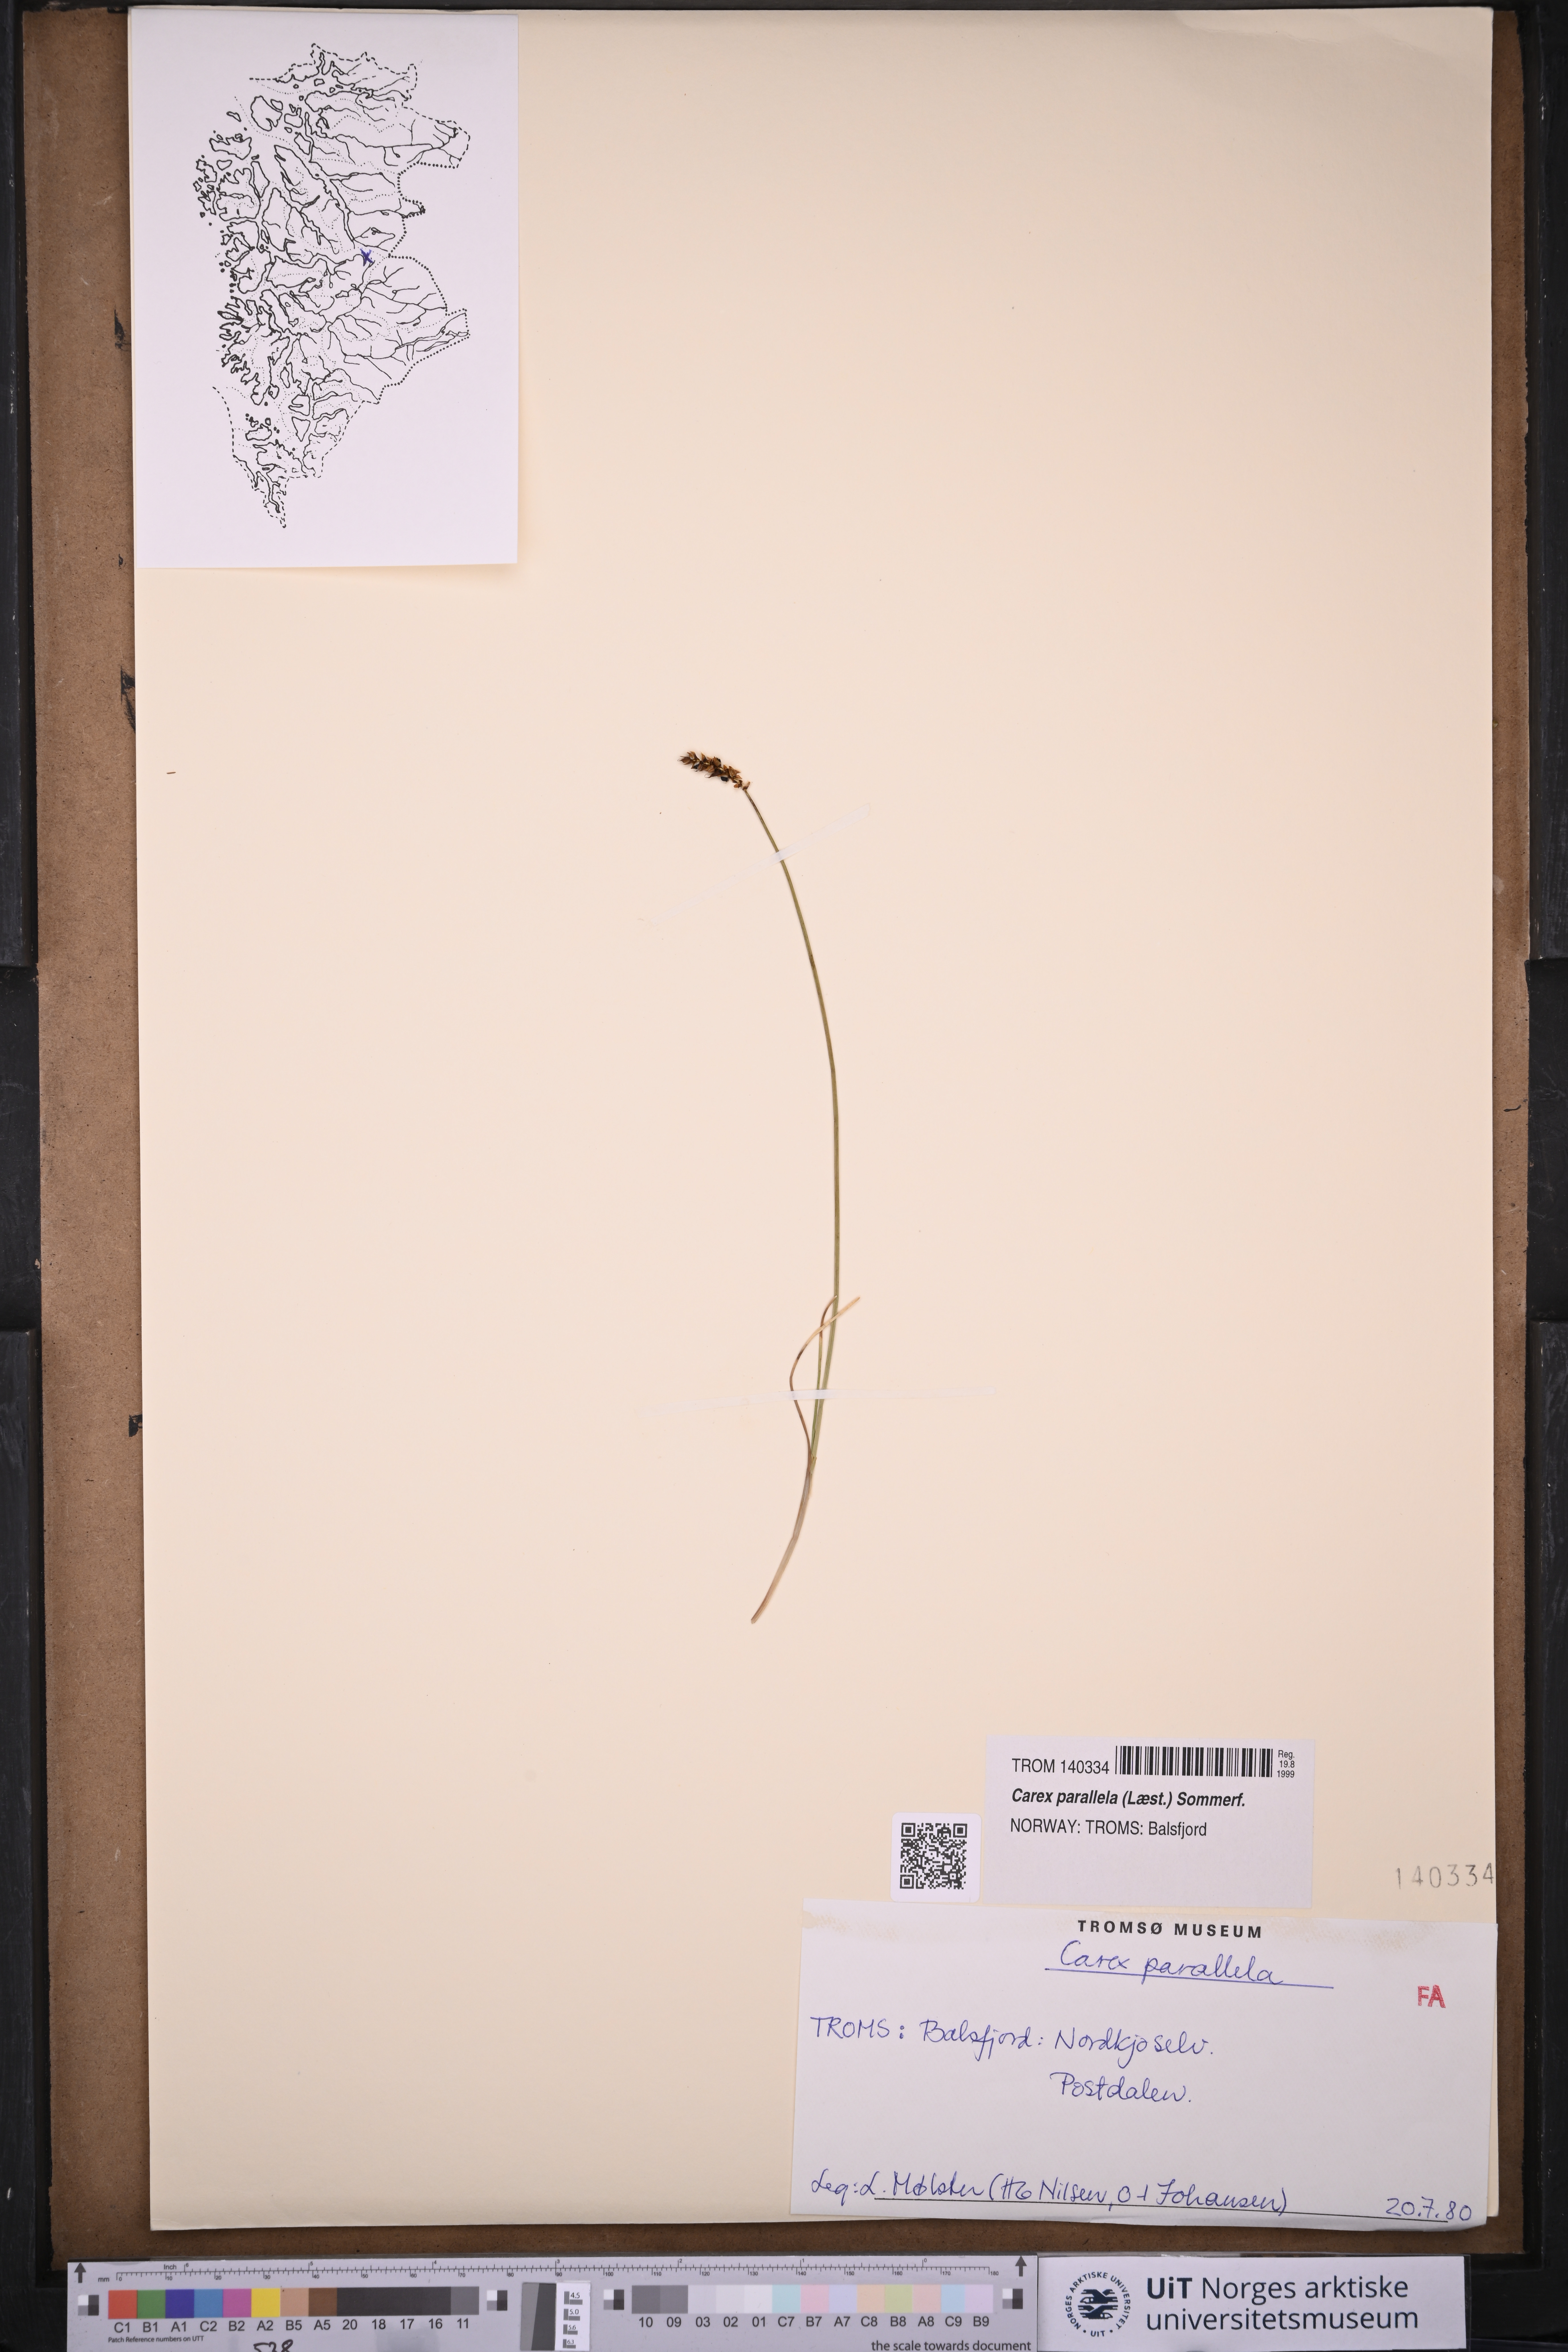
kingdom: Plantae
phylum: Tracheophyta
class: Liliopsida
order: Poales
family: Cyperaceae
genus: Carex
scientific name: Carex parallela
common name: Parallel sedge
